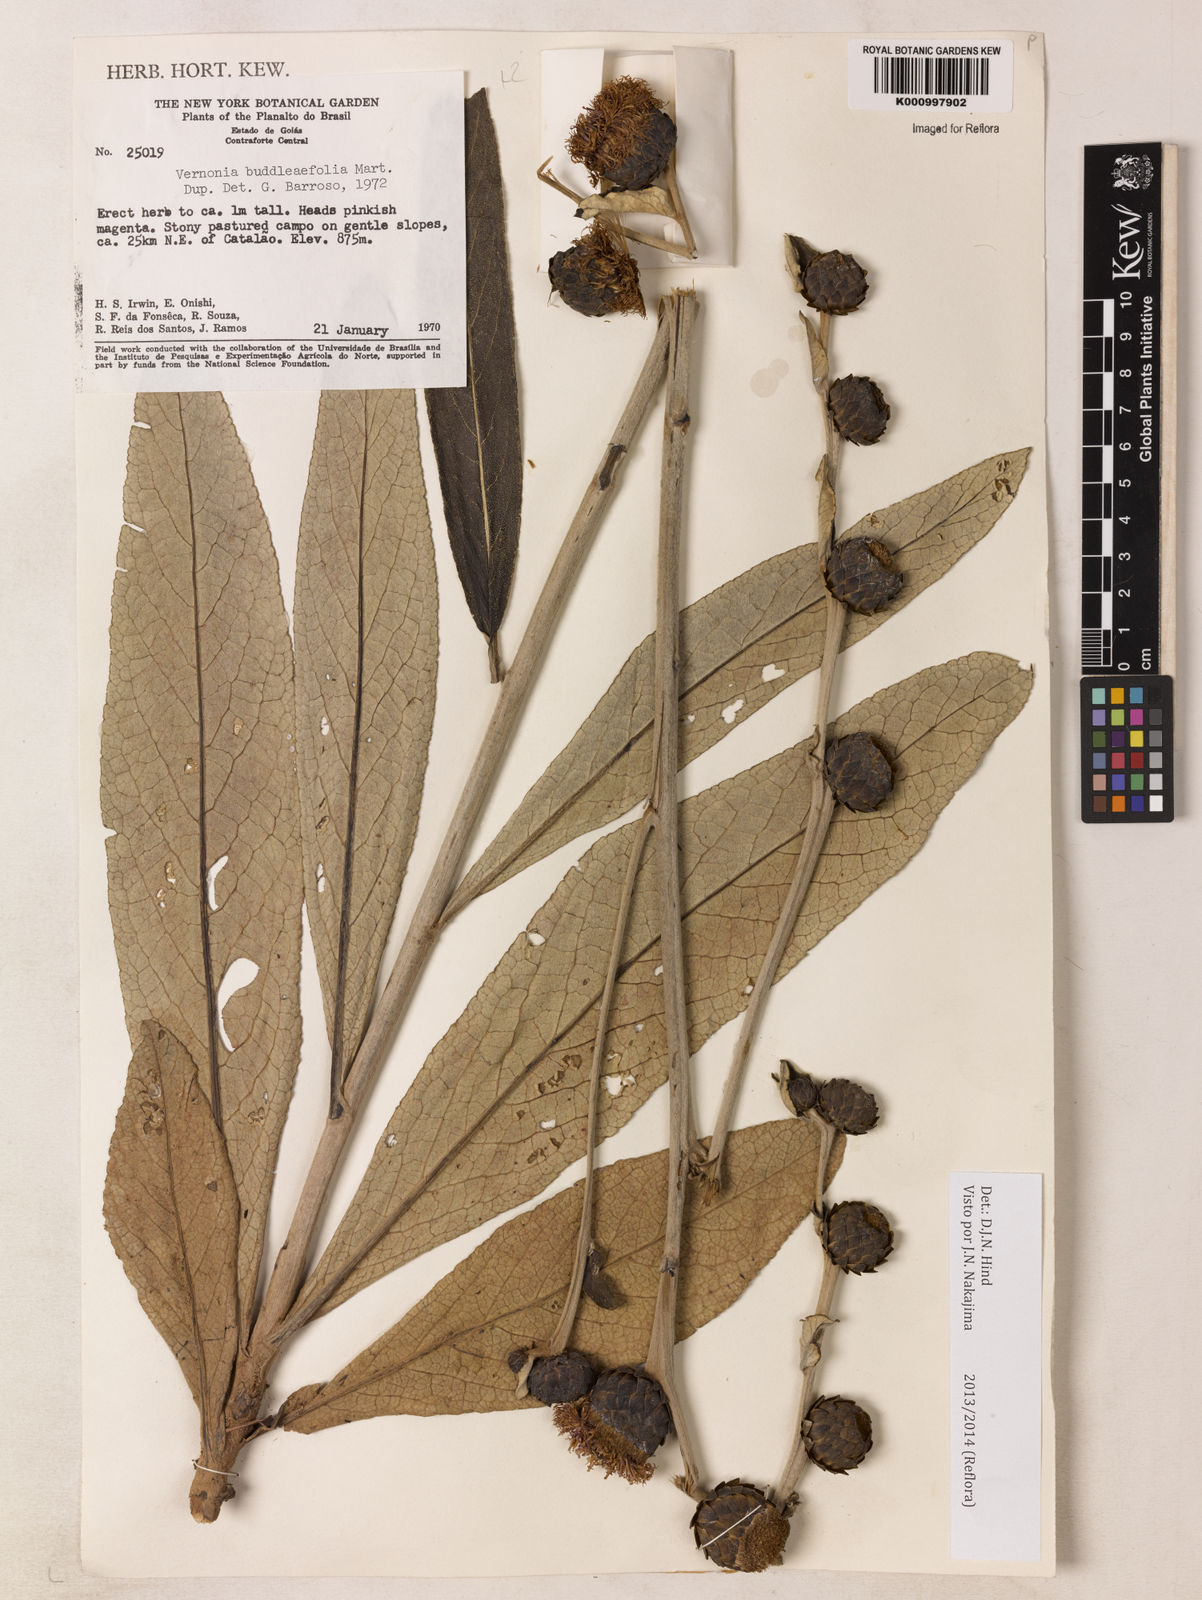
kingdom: Plantae
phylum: Tracheophyta
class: Magnoliopsida
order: Asterales
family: Asteraceae
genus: Lessingianthus
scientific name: Lessingianthus buddlejifolius
